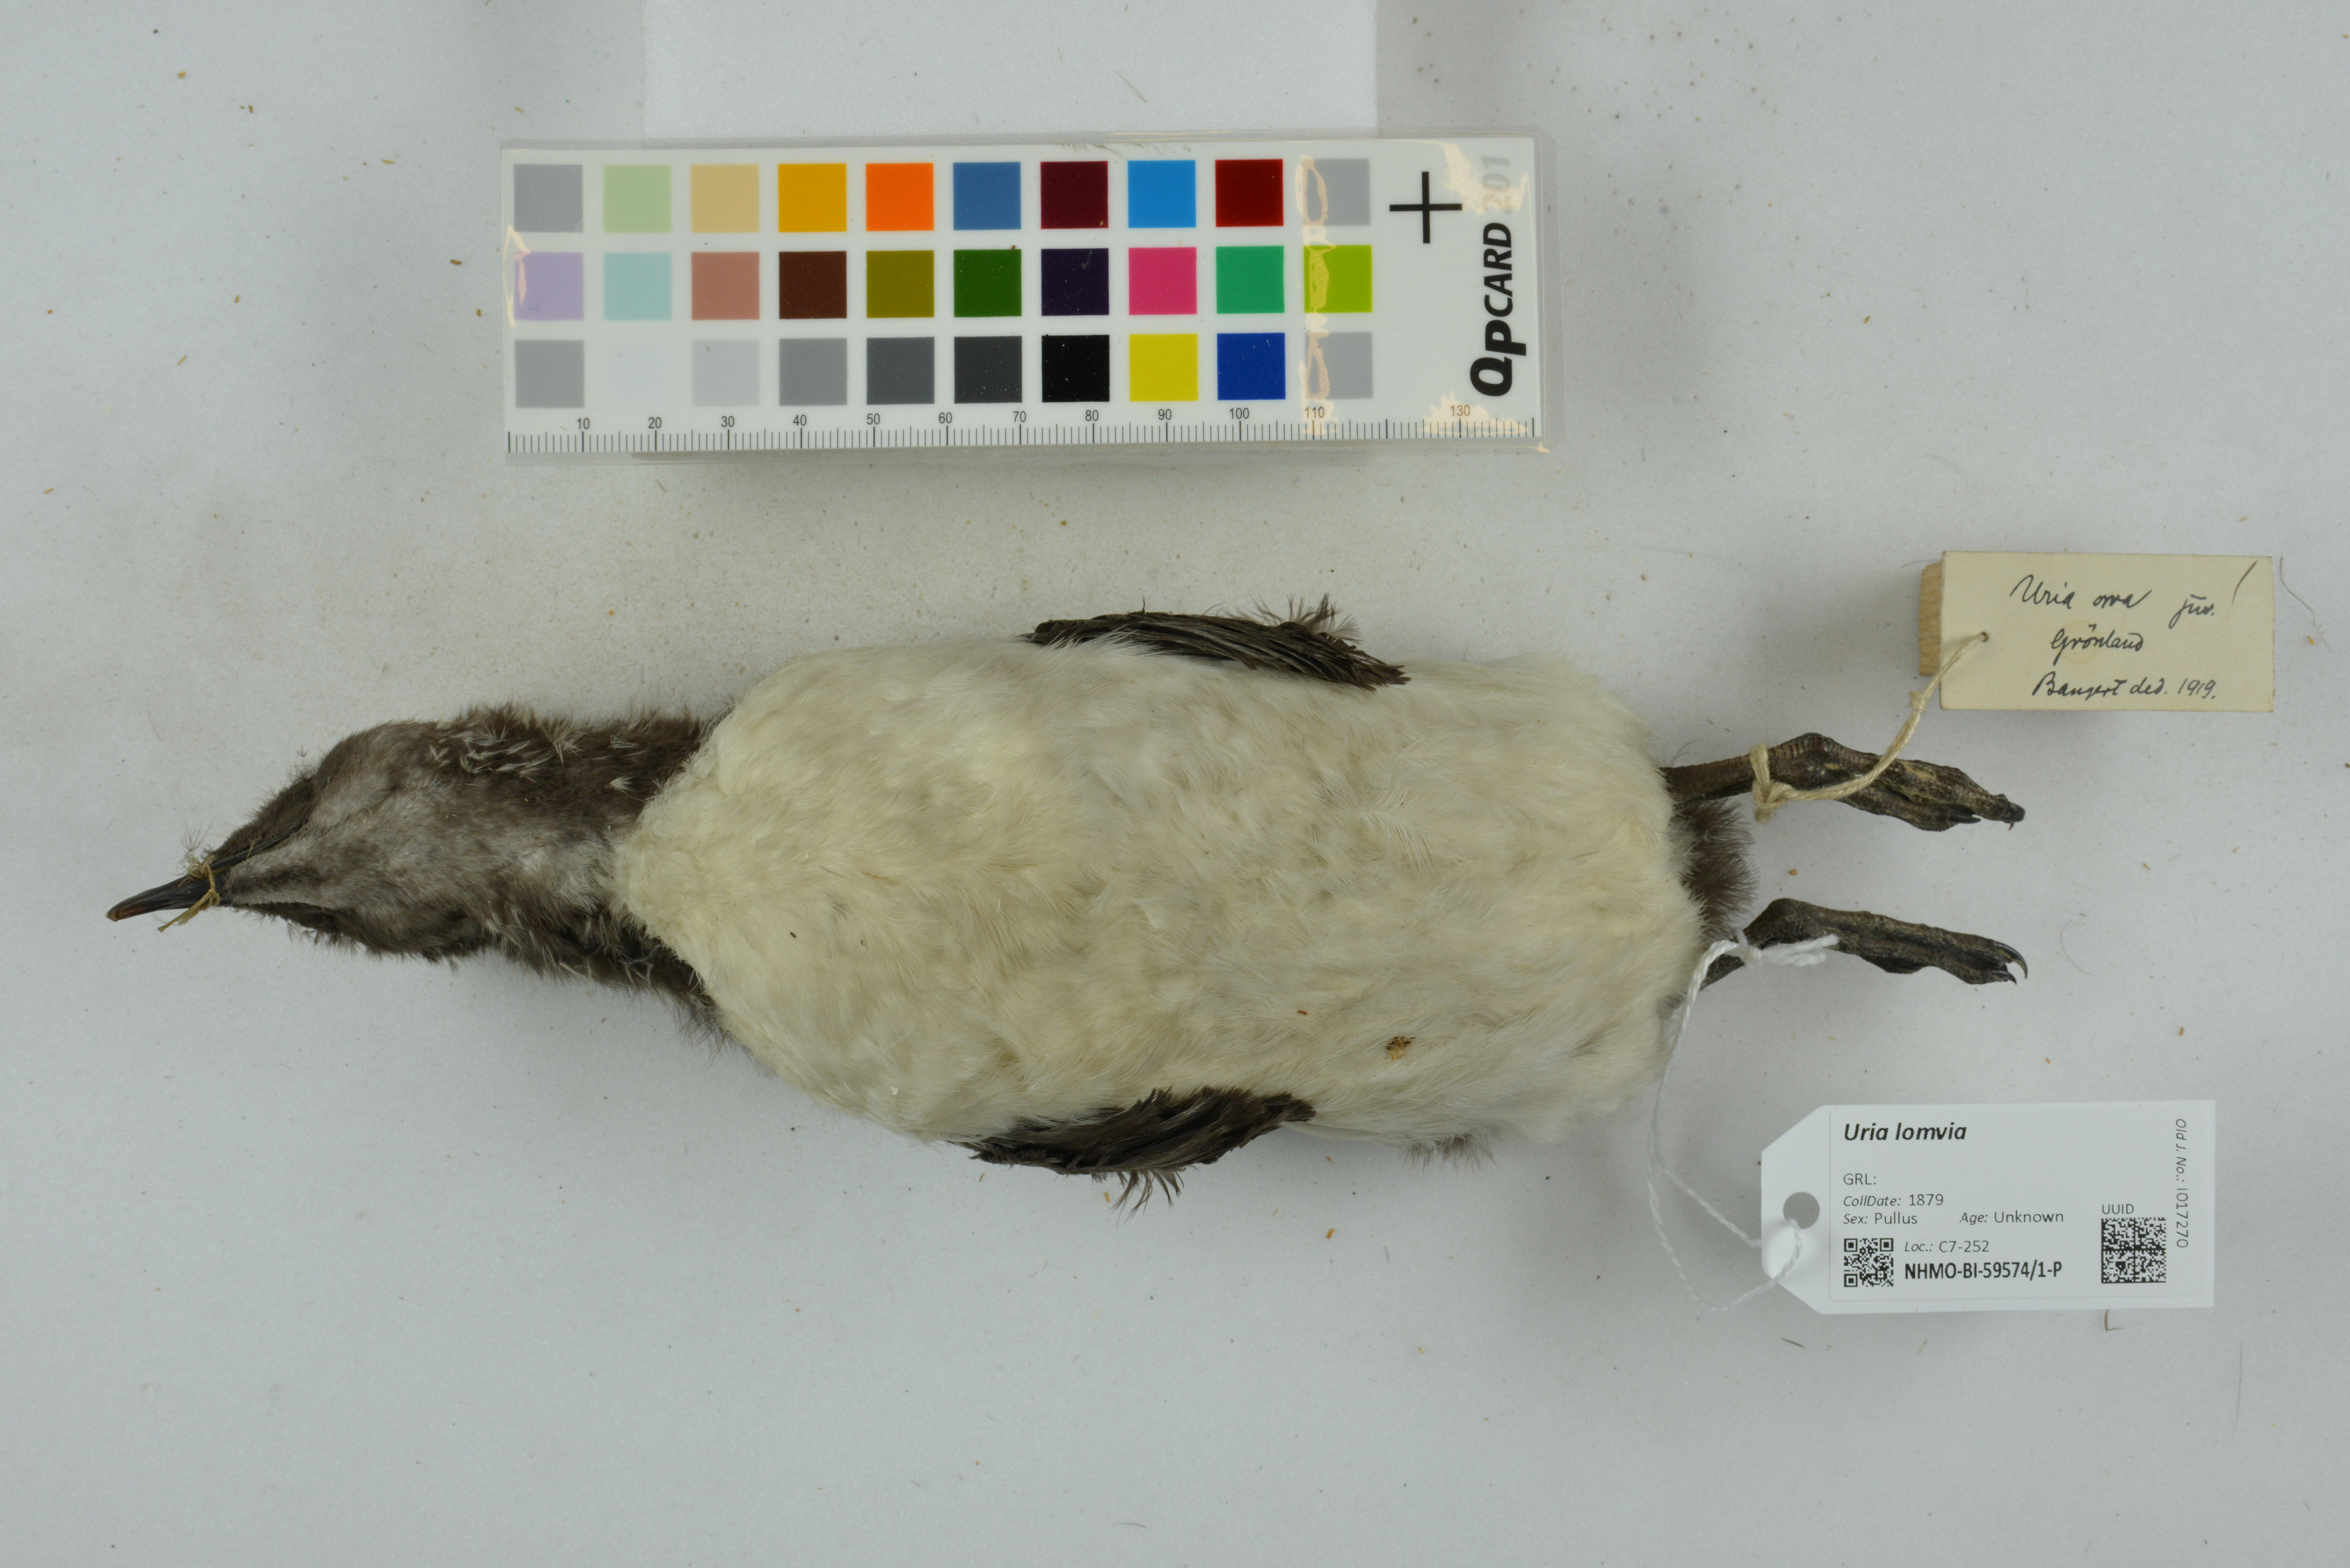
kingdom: Animalia
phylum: Chordata
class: Aves
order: Charadriiformes
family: Alcidae
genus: Uria
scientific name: Uria lomvia
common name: Thick-billed murre
